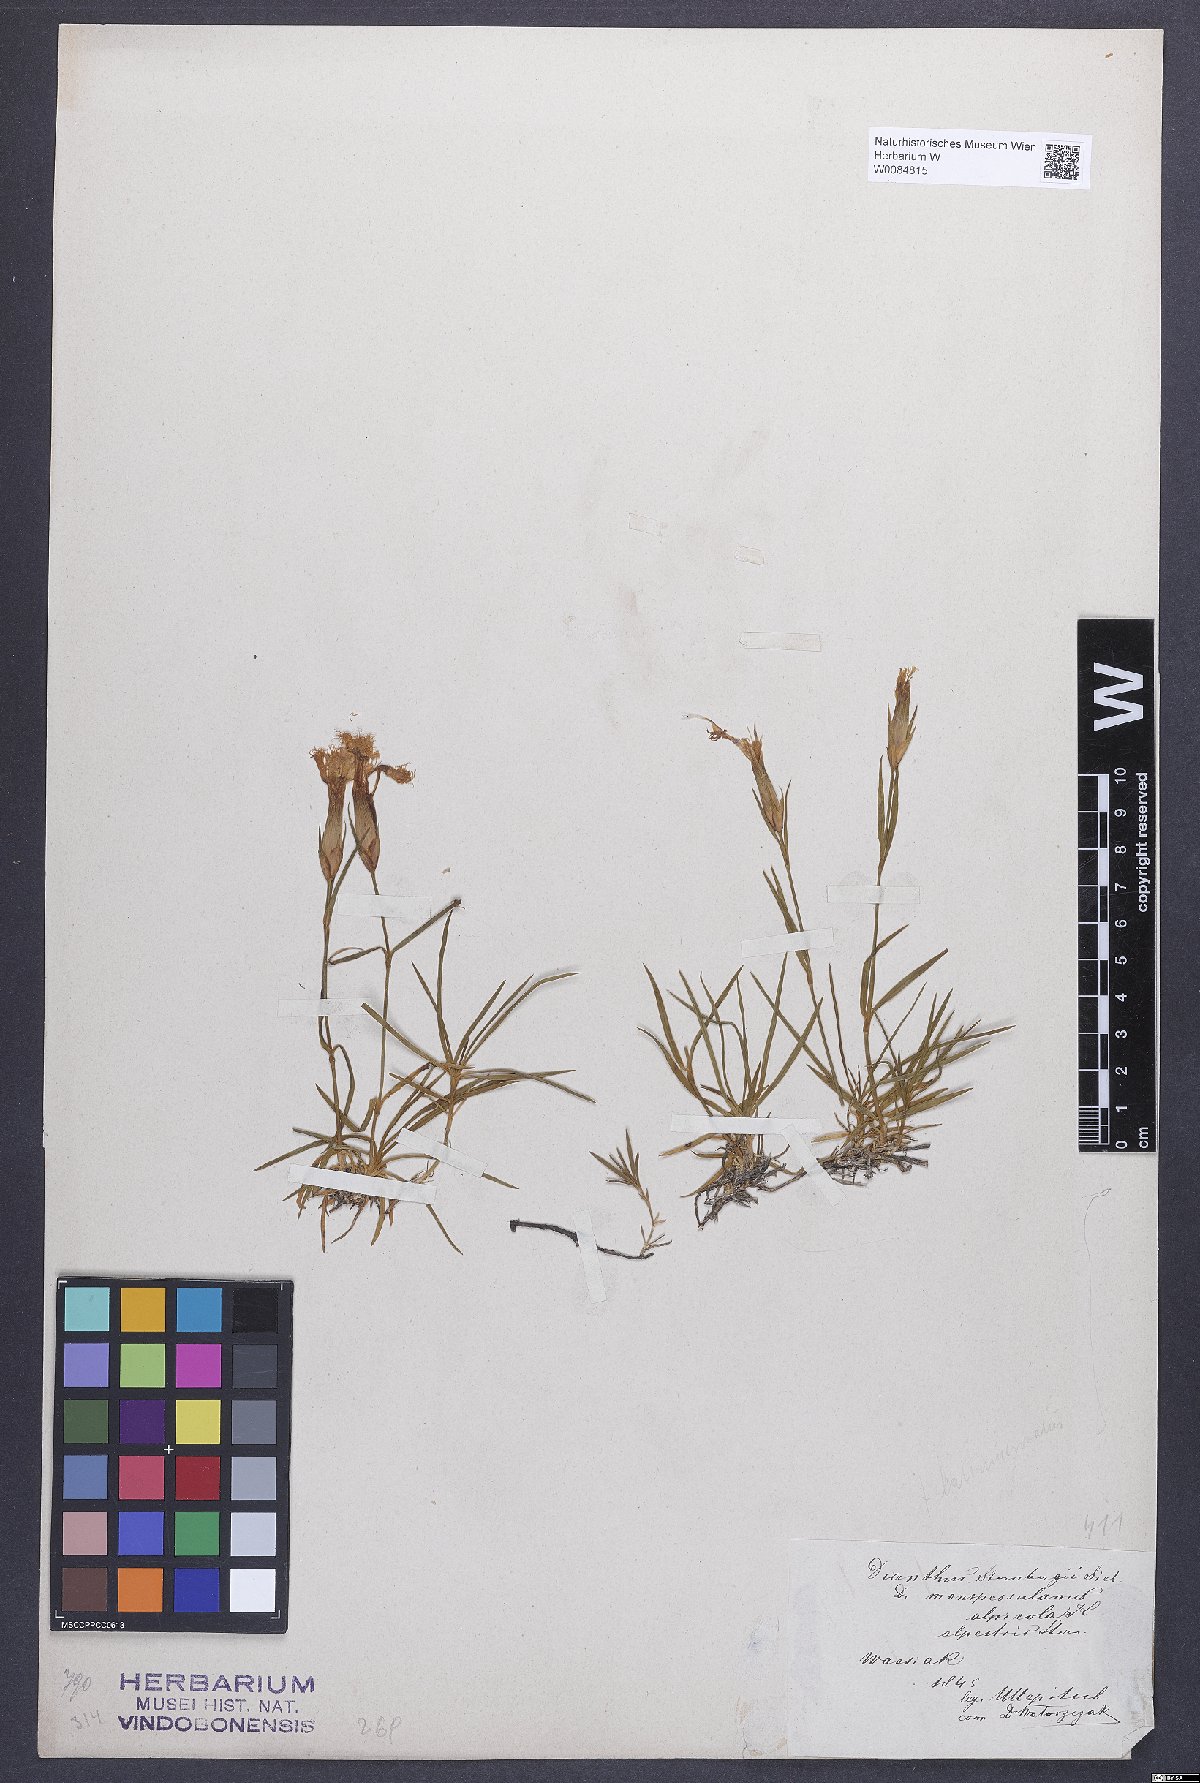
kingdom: Plantae
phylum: Tracheophyta
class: Magnoliopsida
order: Caryophyllales
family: Caryophyllaceae
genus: Dianthus
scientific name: Dianthus monspessulanus
